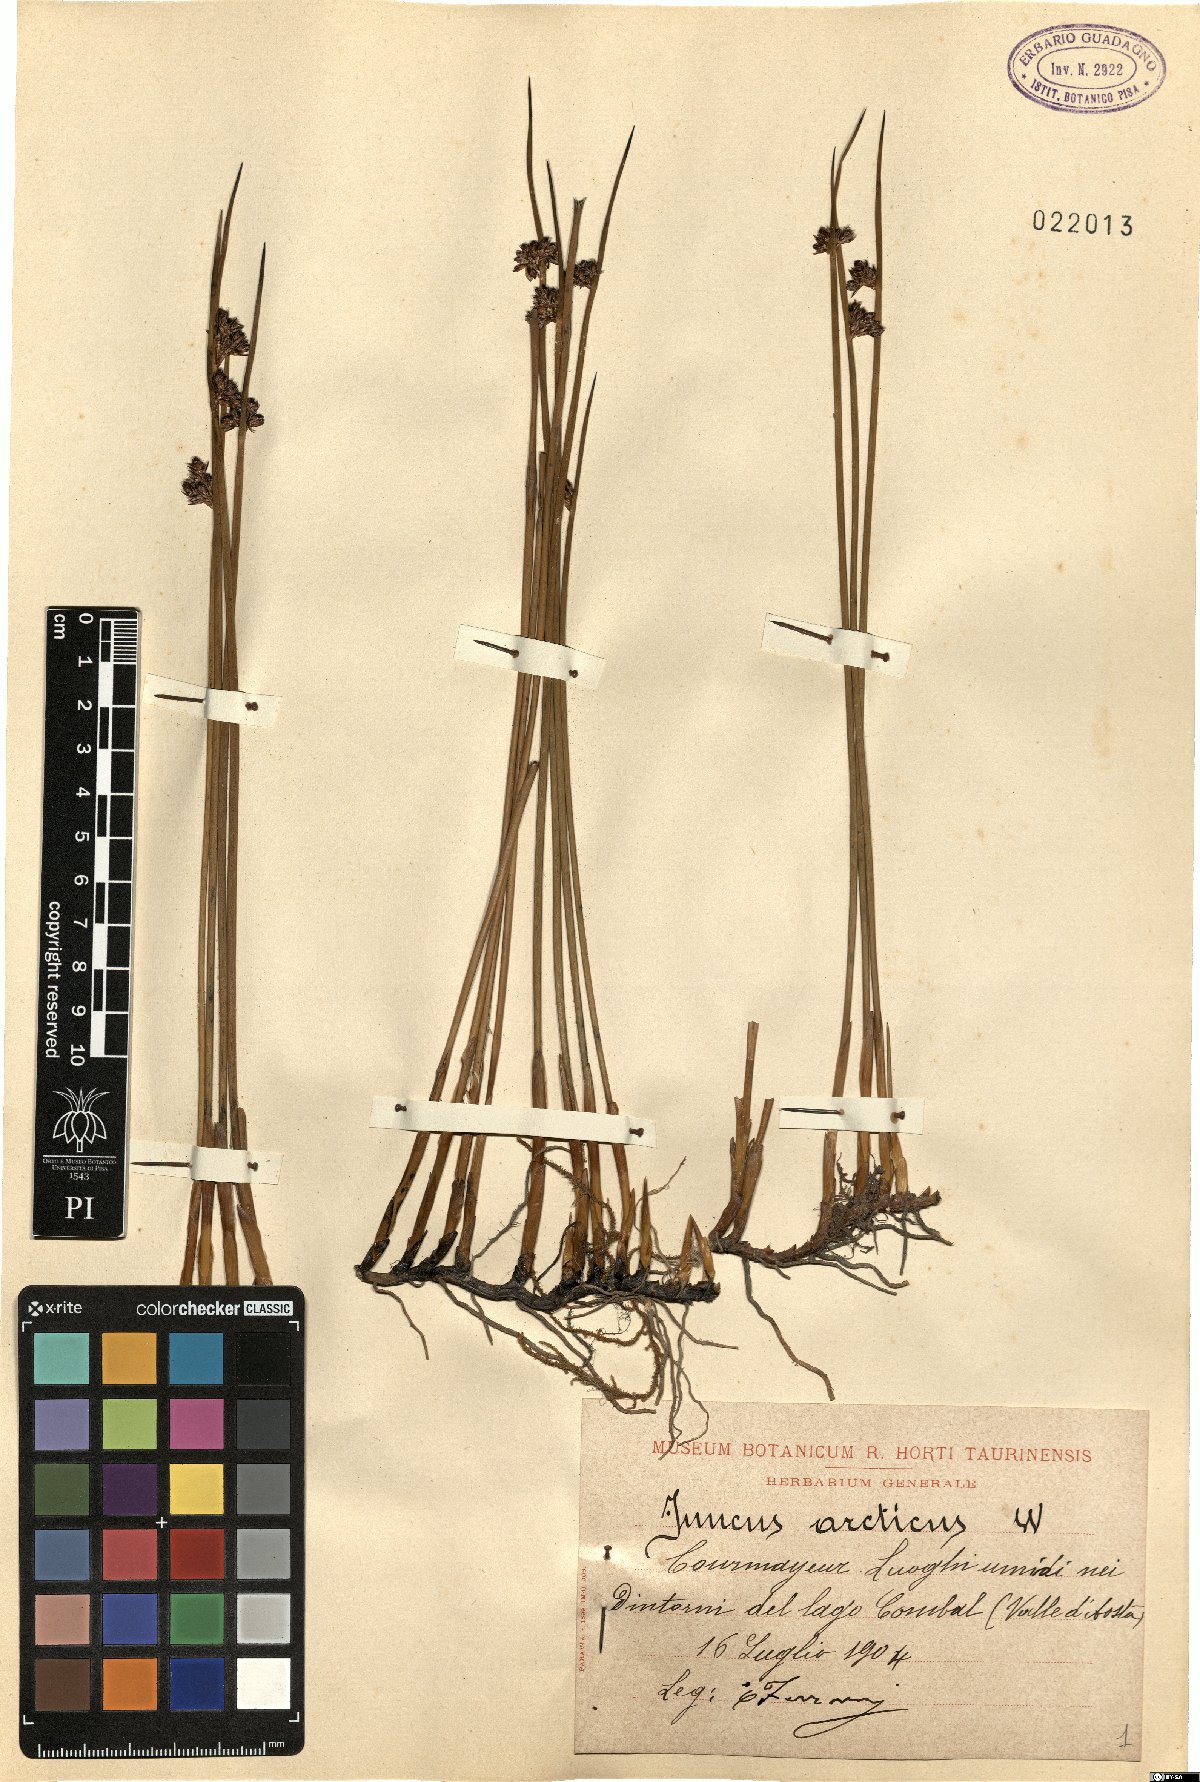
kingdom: Plantae
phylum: Tracheophyta
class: Liliopsida
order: Poales
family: Juncaceae
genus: Juncus
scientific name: Juncus arcticus
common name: Arctic rush
